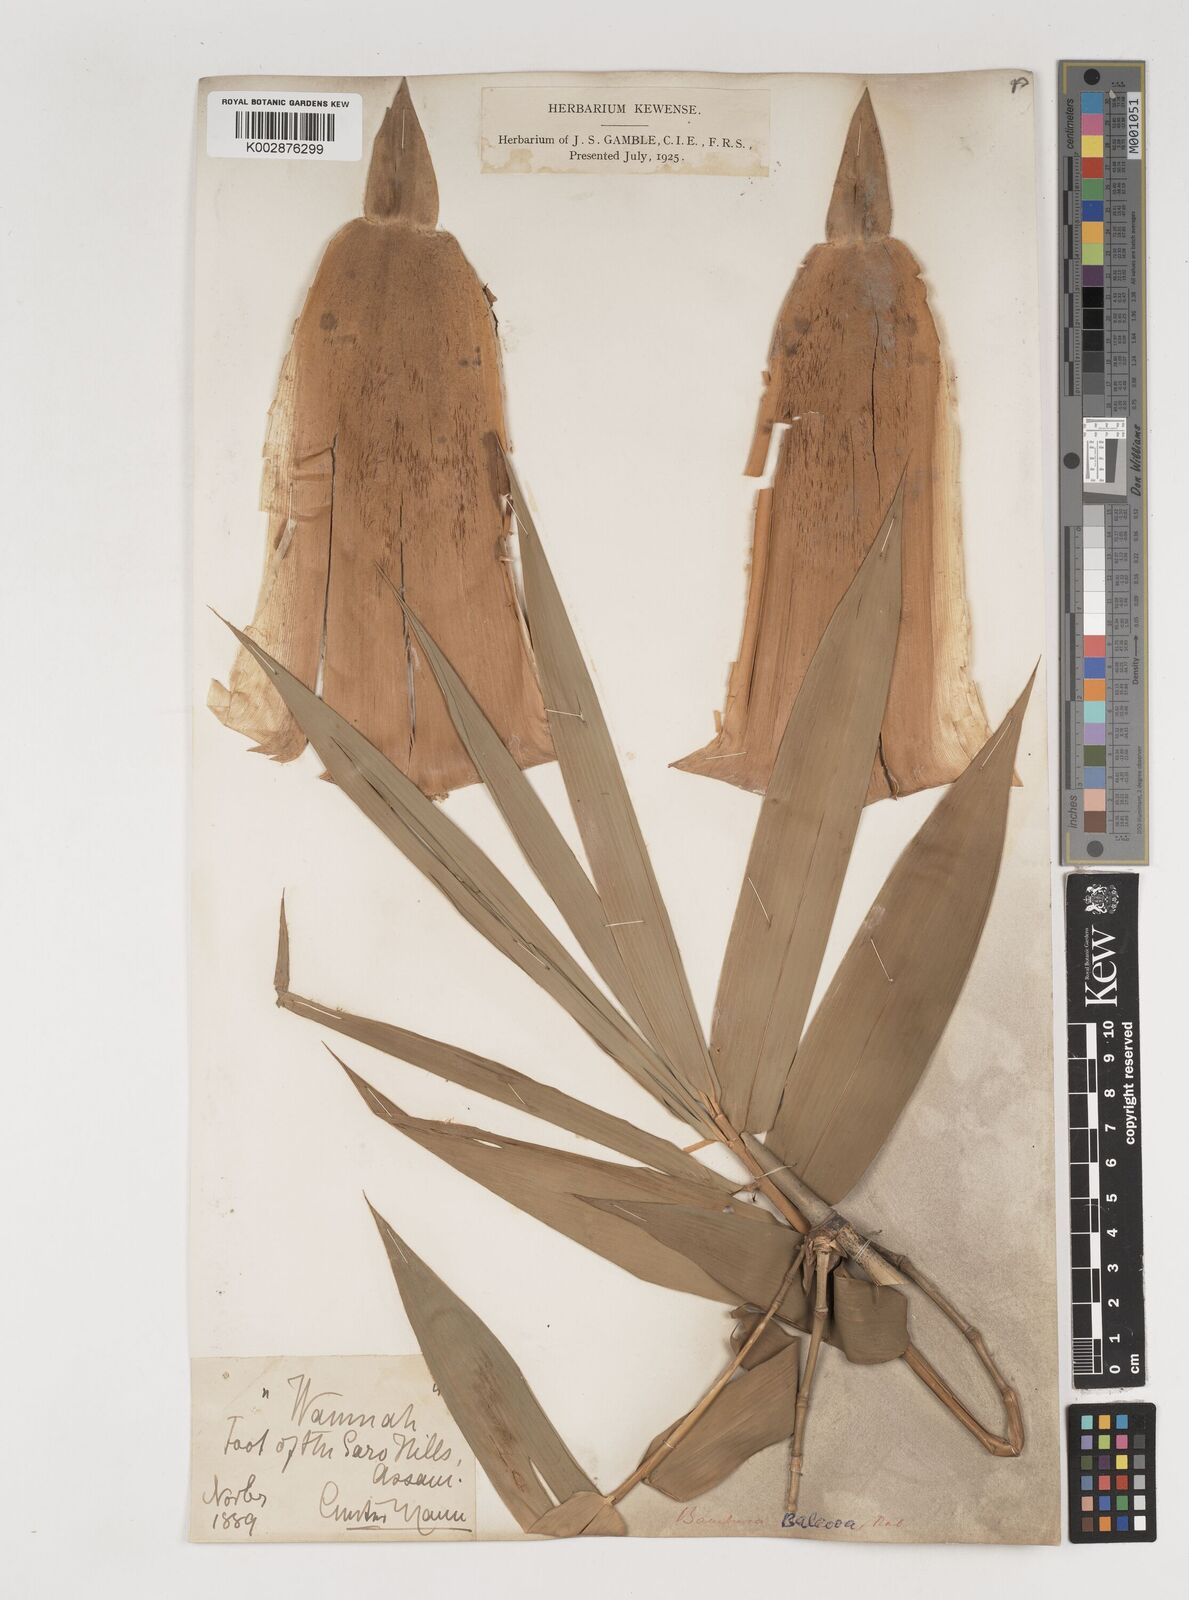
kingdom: Plantae
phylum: Tracheophyta
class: Liliopsida
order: Poales
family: Poaceae
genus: Bambusa
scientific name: Bambusa balcooa
